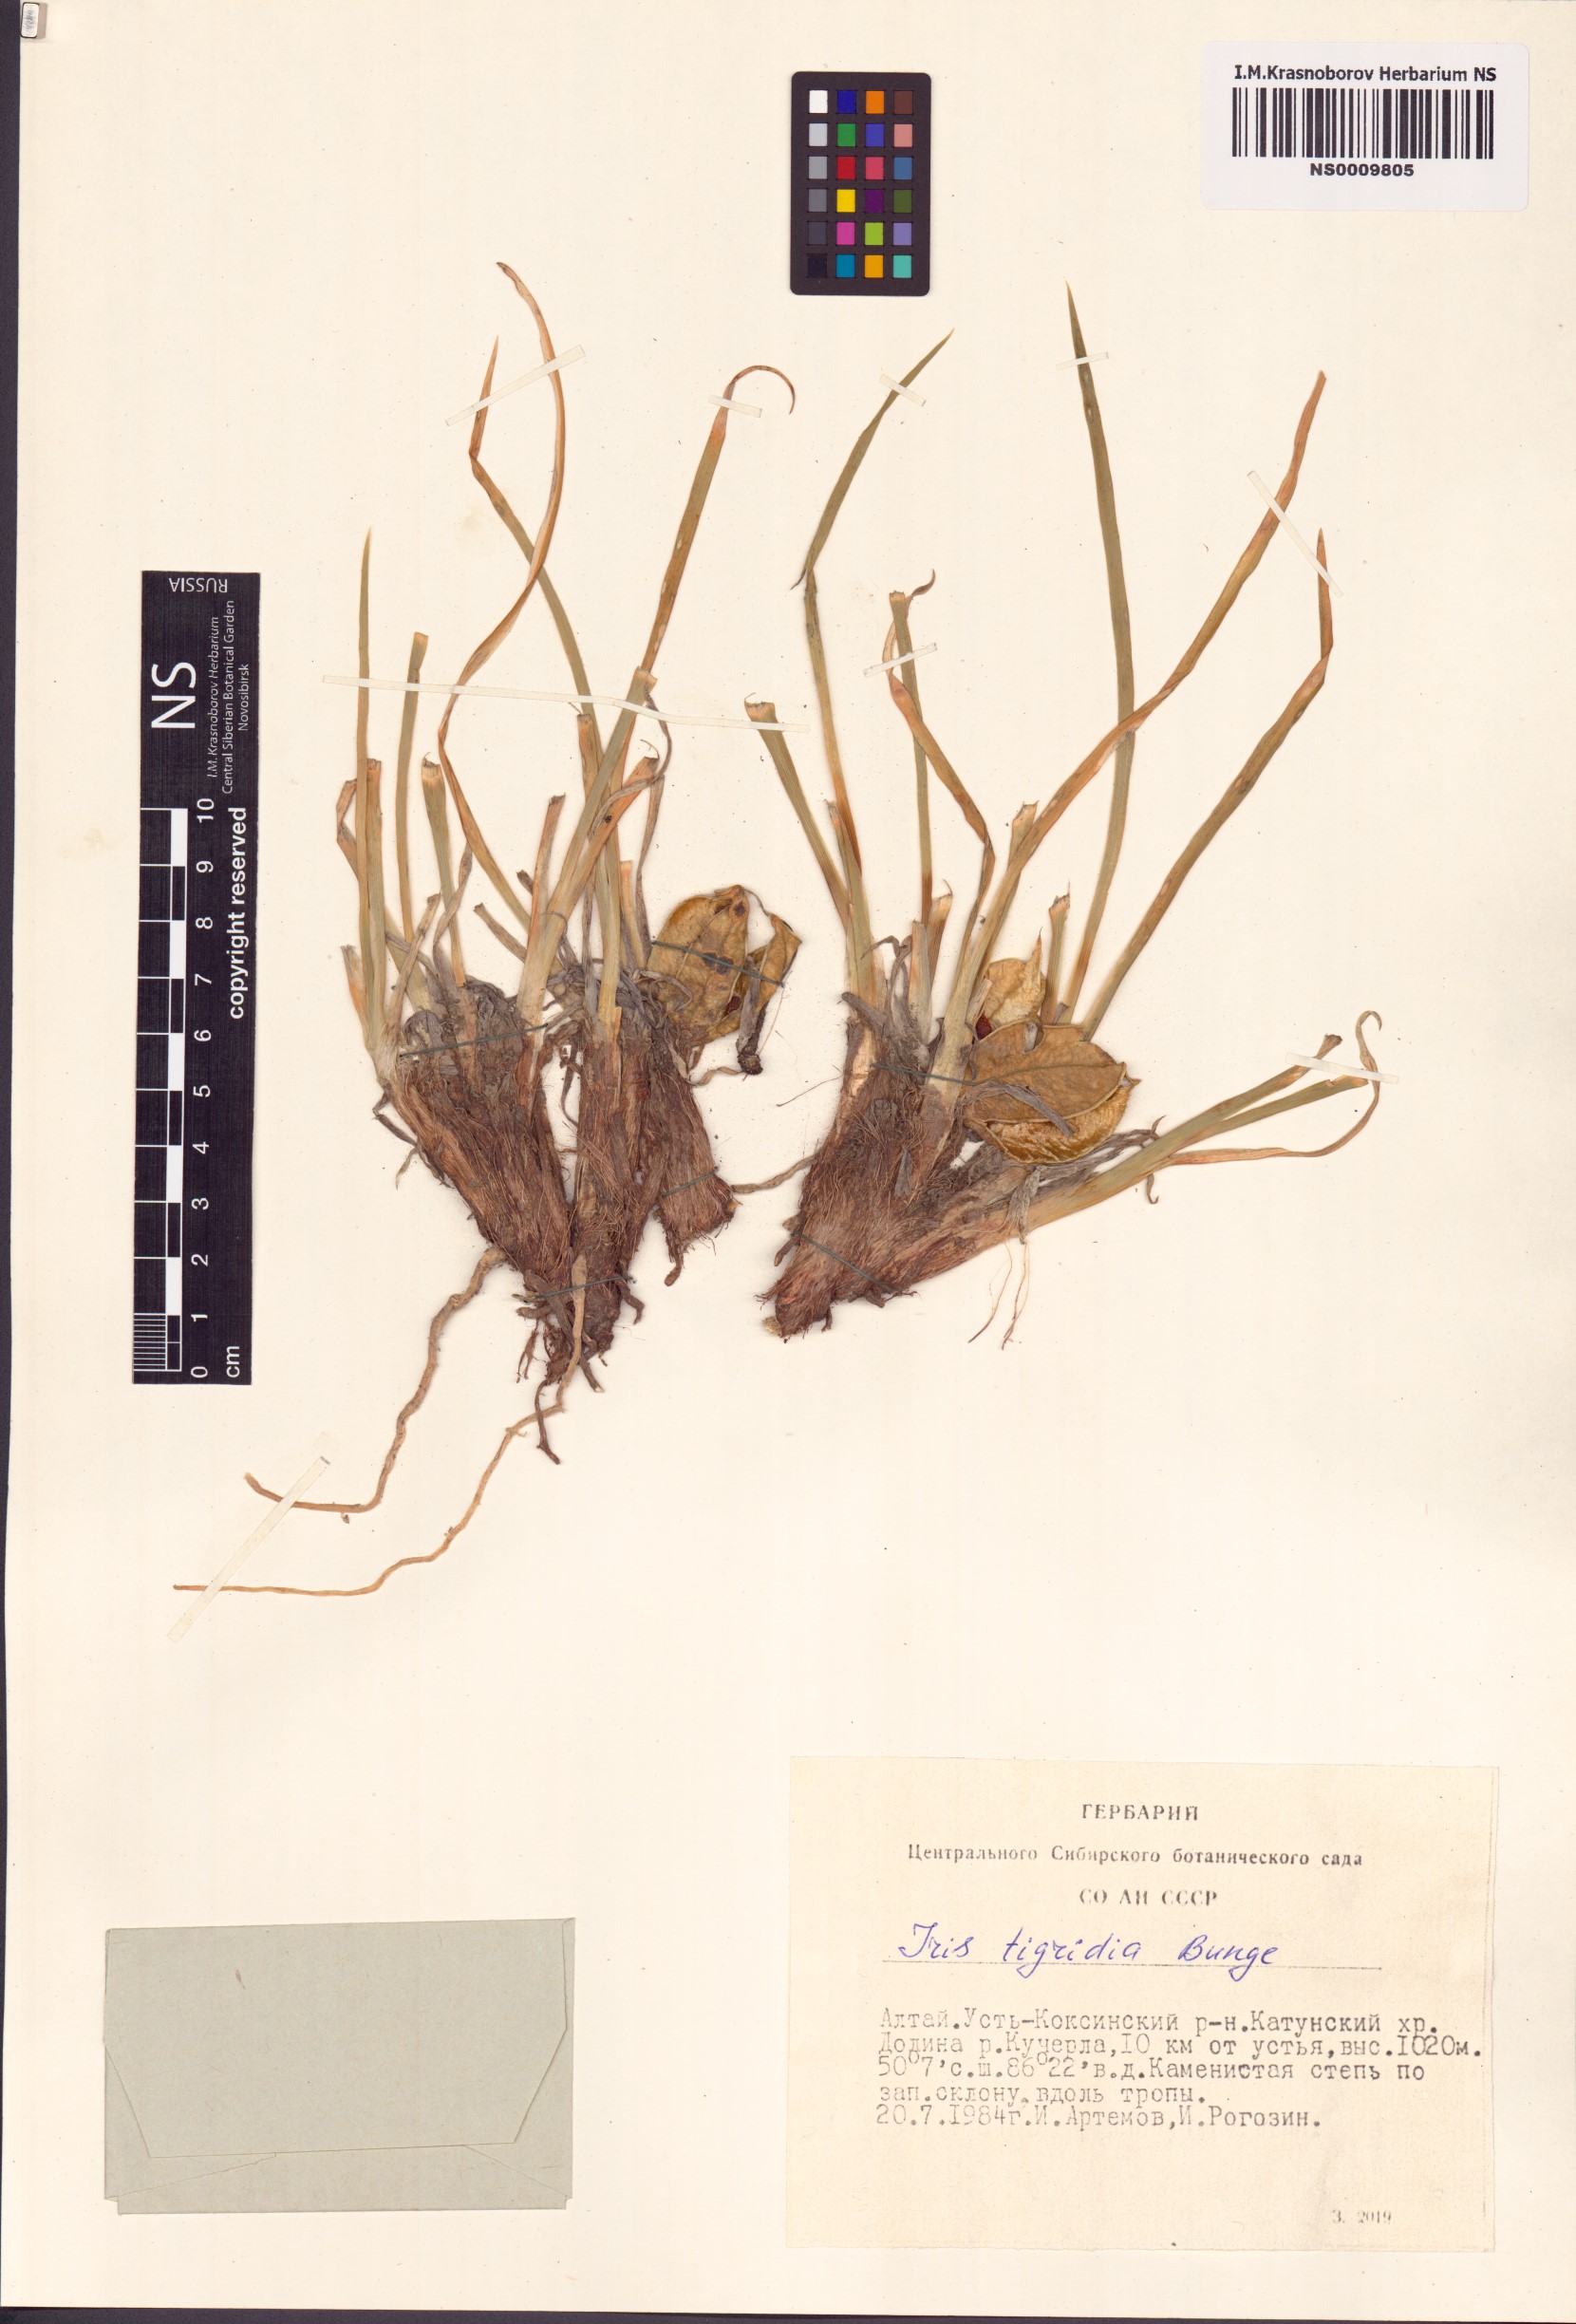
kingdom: Plantae
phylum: Tracheophyta
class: Liliopsida
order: Asparagales
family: Iridaceae
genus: Iris
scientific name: Iris tigridia
